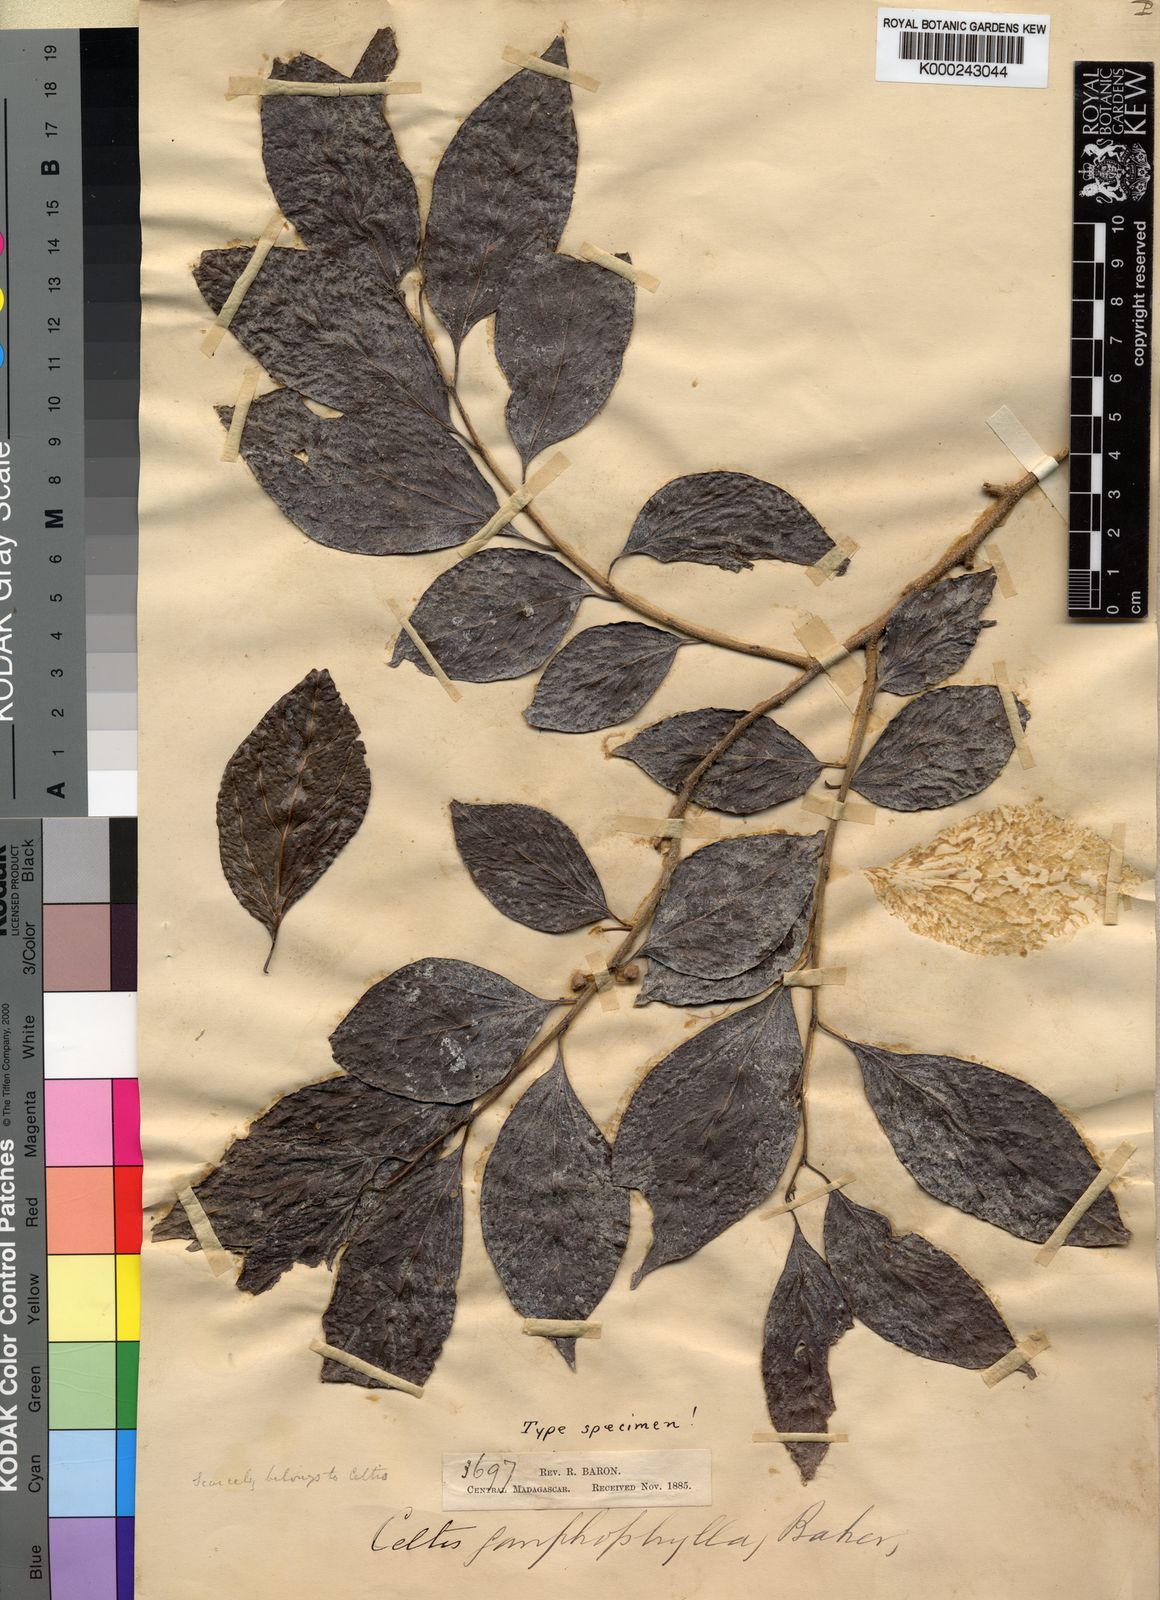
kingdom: Plantae
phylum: Tracheophyta
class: Magnoliopsida
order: Rosales
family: Cannabaceae
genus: Celtis
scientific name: Celtis gomphophylla
